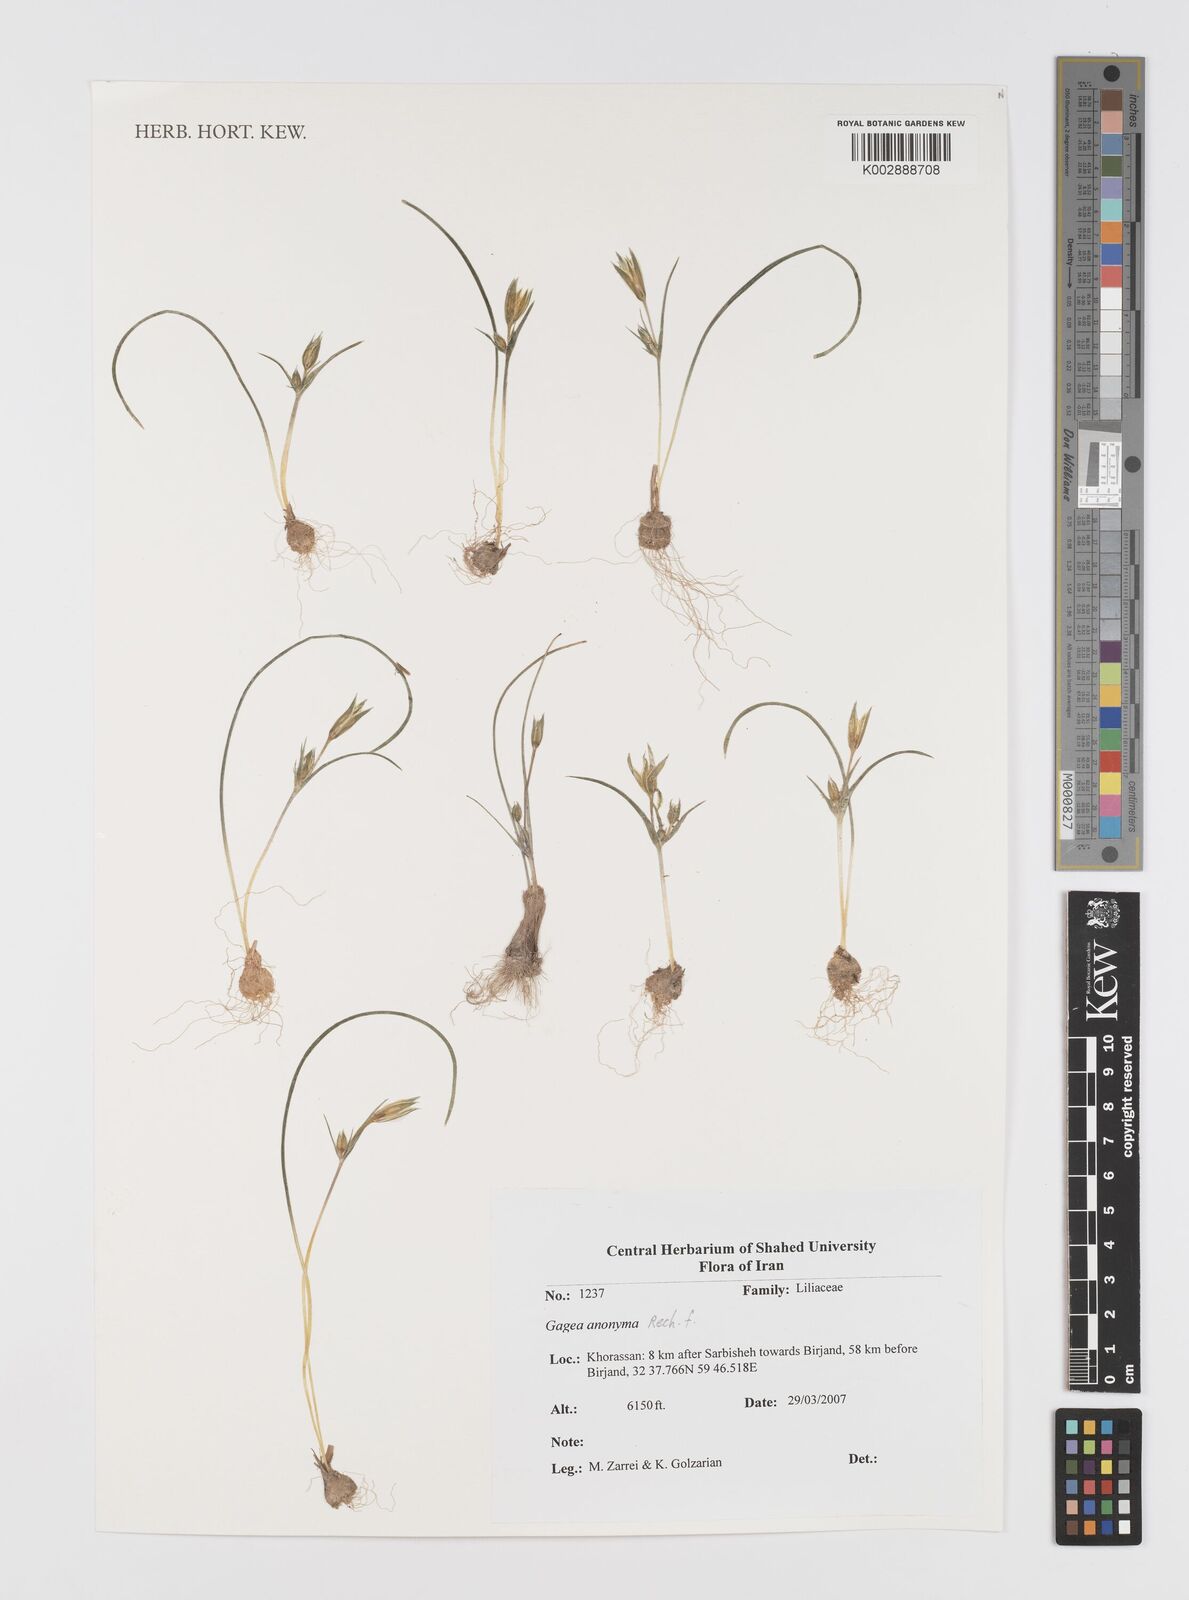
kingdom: Plantae
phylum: Tracheophyta
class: Liliopsida
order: Liliales
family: Liliaceae
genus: Gagea
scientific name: Gagea setifolia
